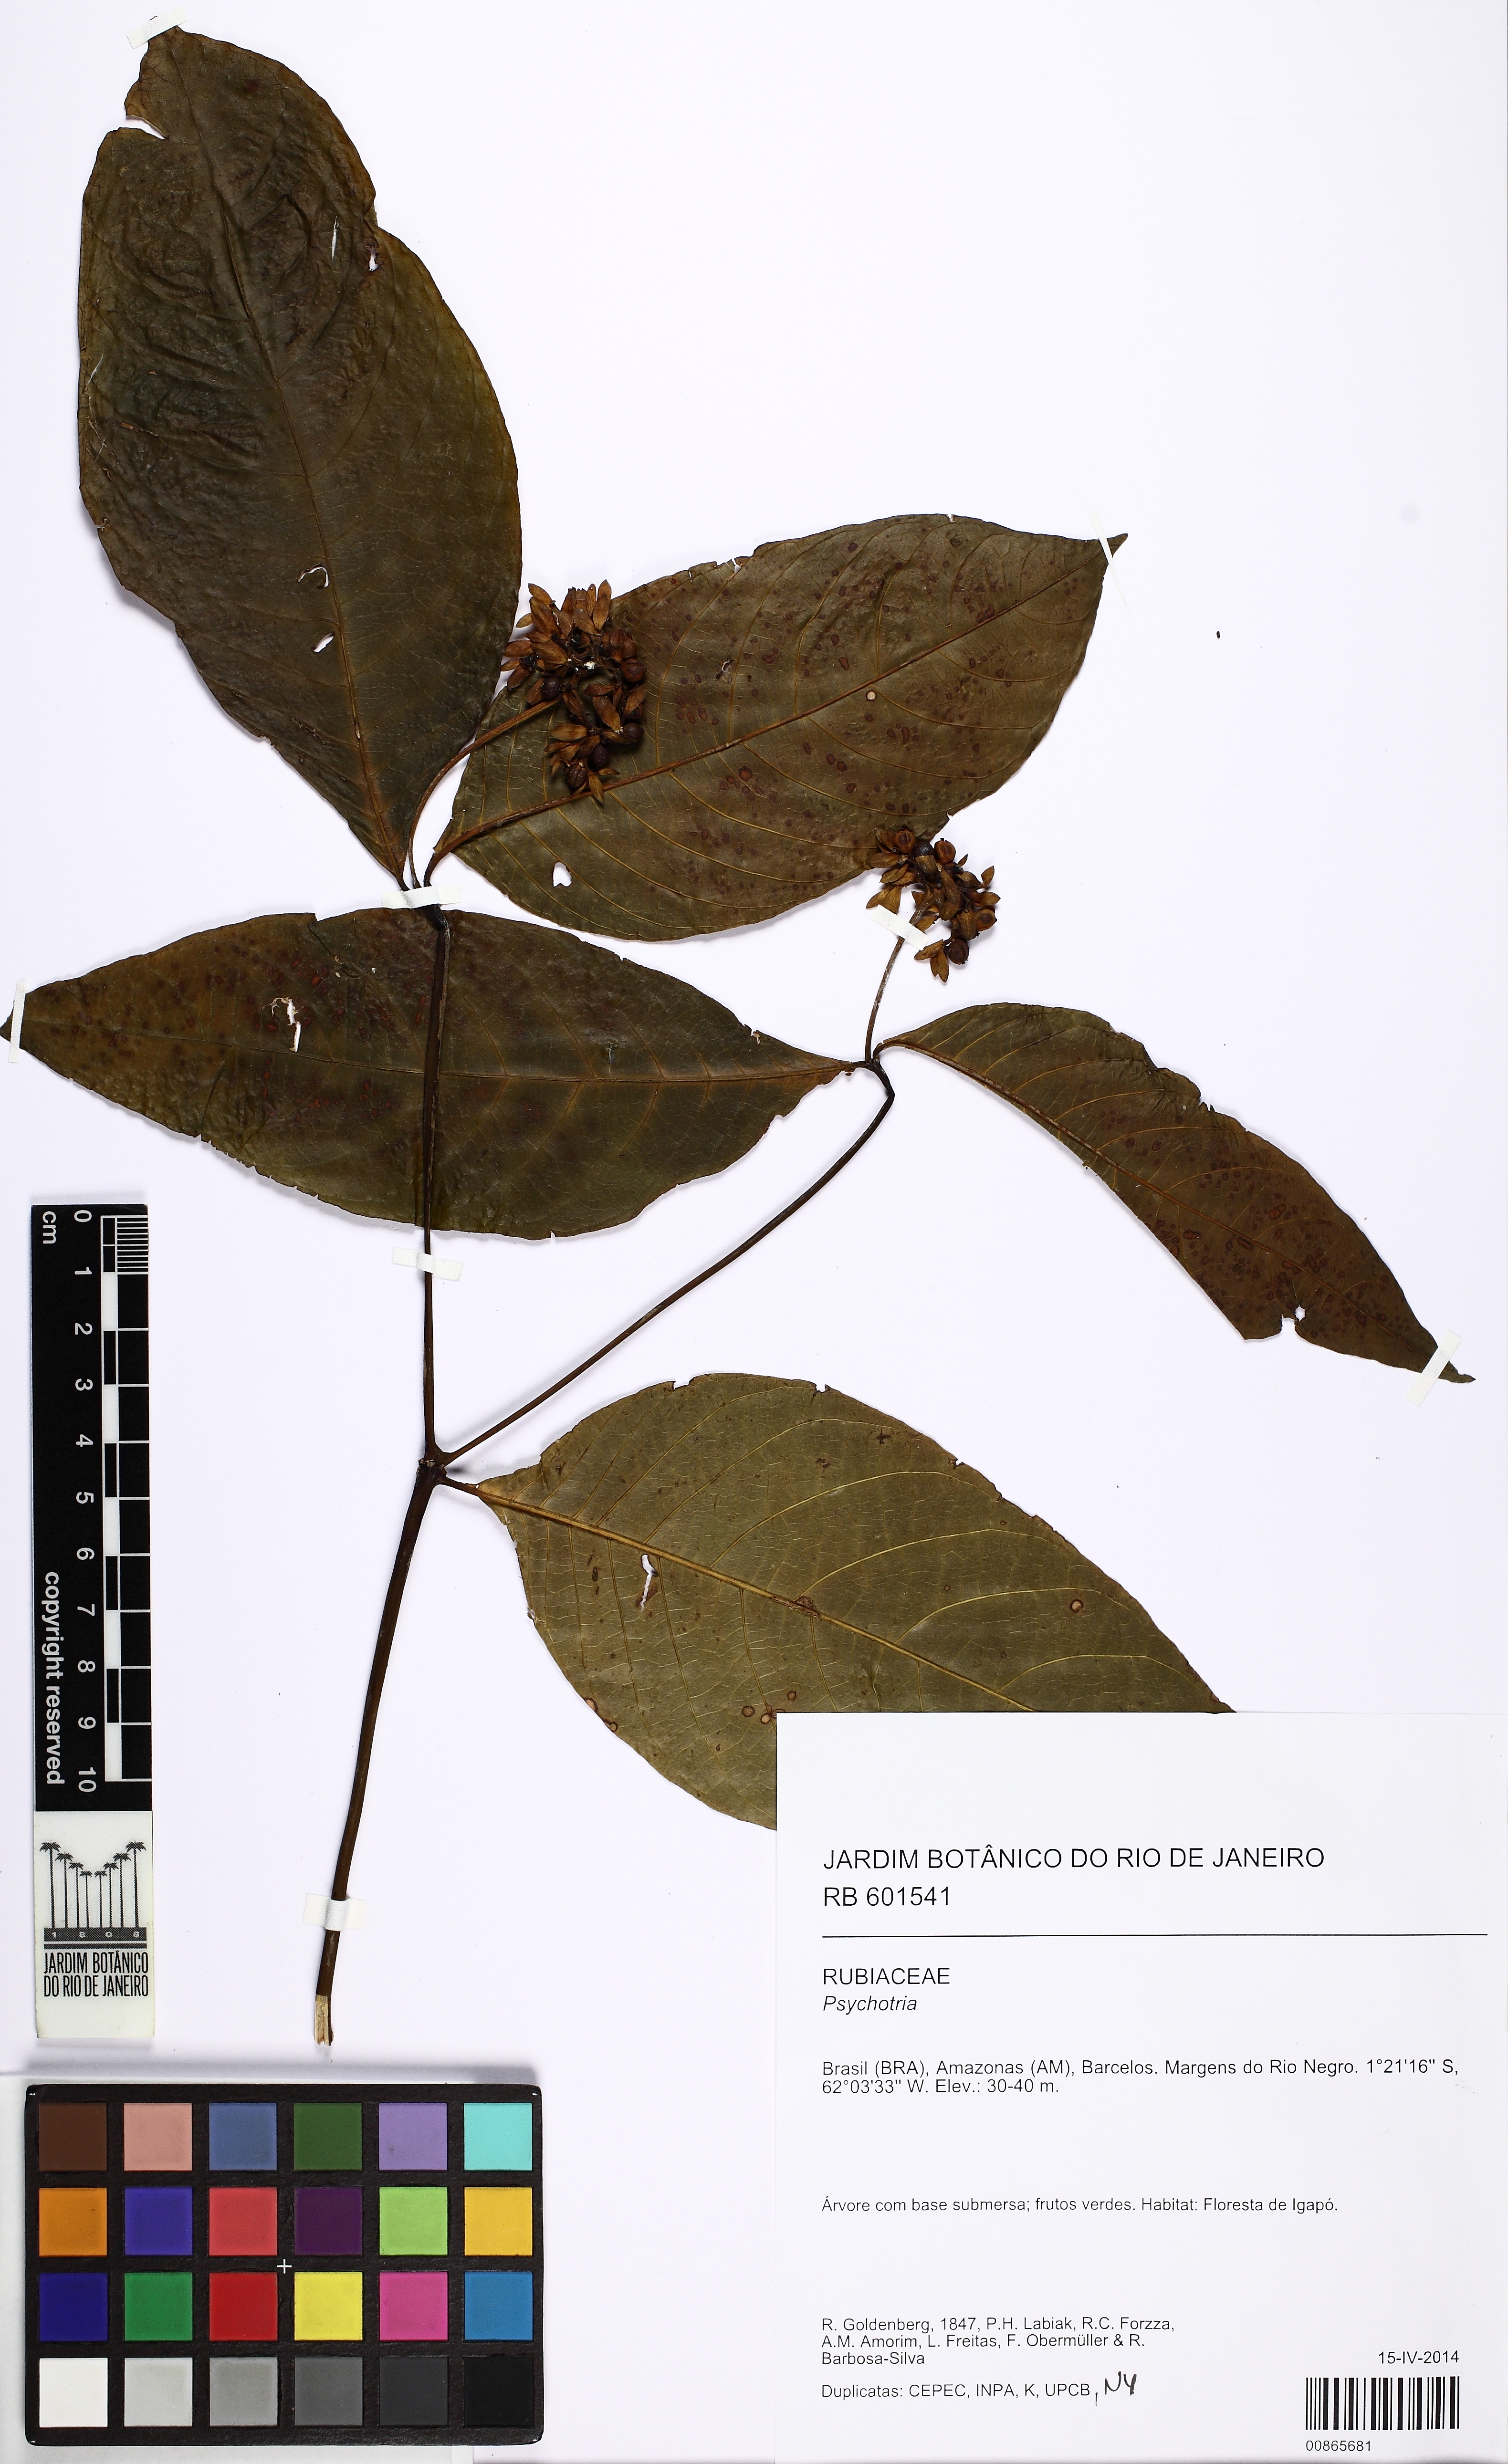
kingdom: Plantae
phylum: Tracheophyta
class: Magnoliopsida
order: Gentianales
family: Rubiaceae
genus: Palicourea
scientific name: Palicourea justiciifolia
